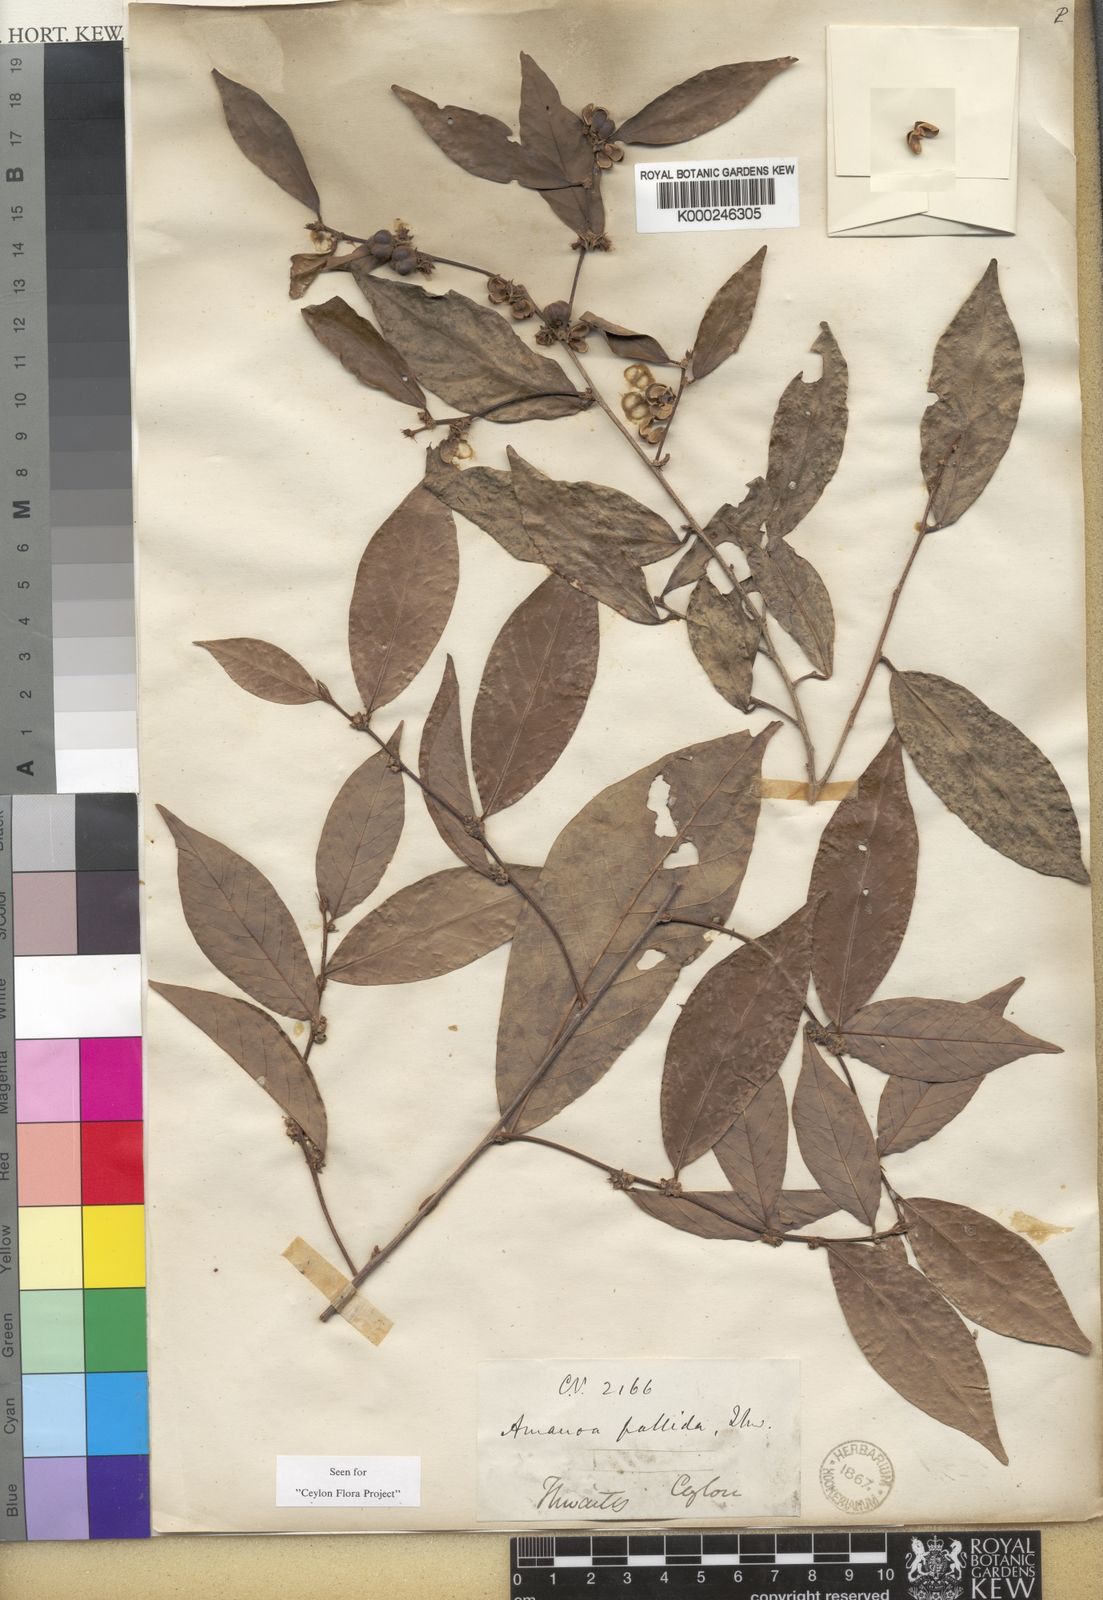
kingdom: Plantae
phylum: Tracheophyta
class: Magnoliopsida
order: Malpighiales
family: Phyllanthaceae
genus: Cleistanthus
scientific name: Cleistanthus
